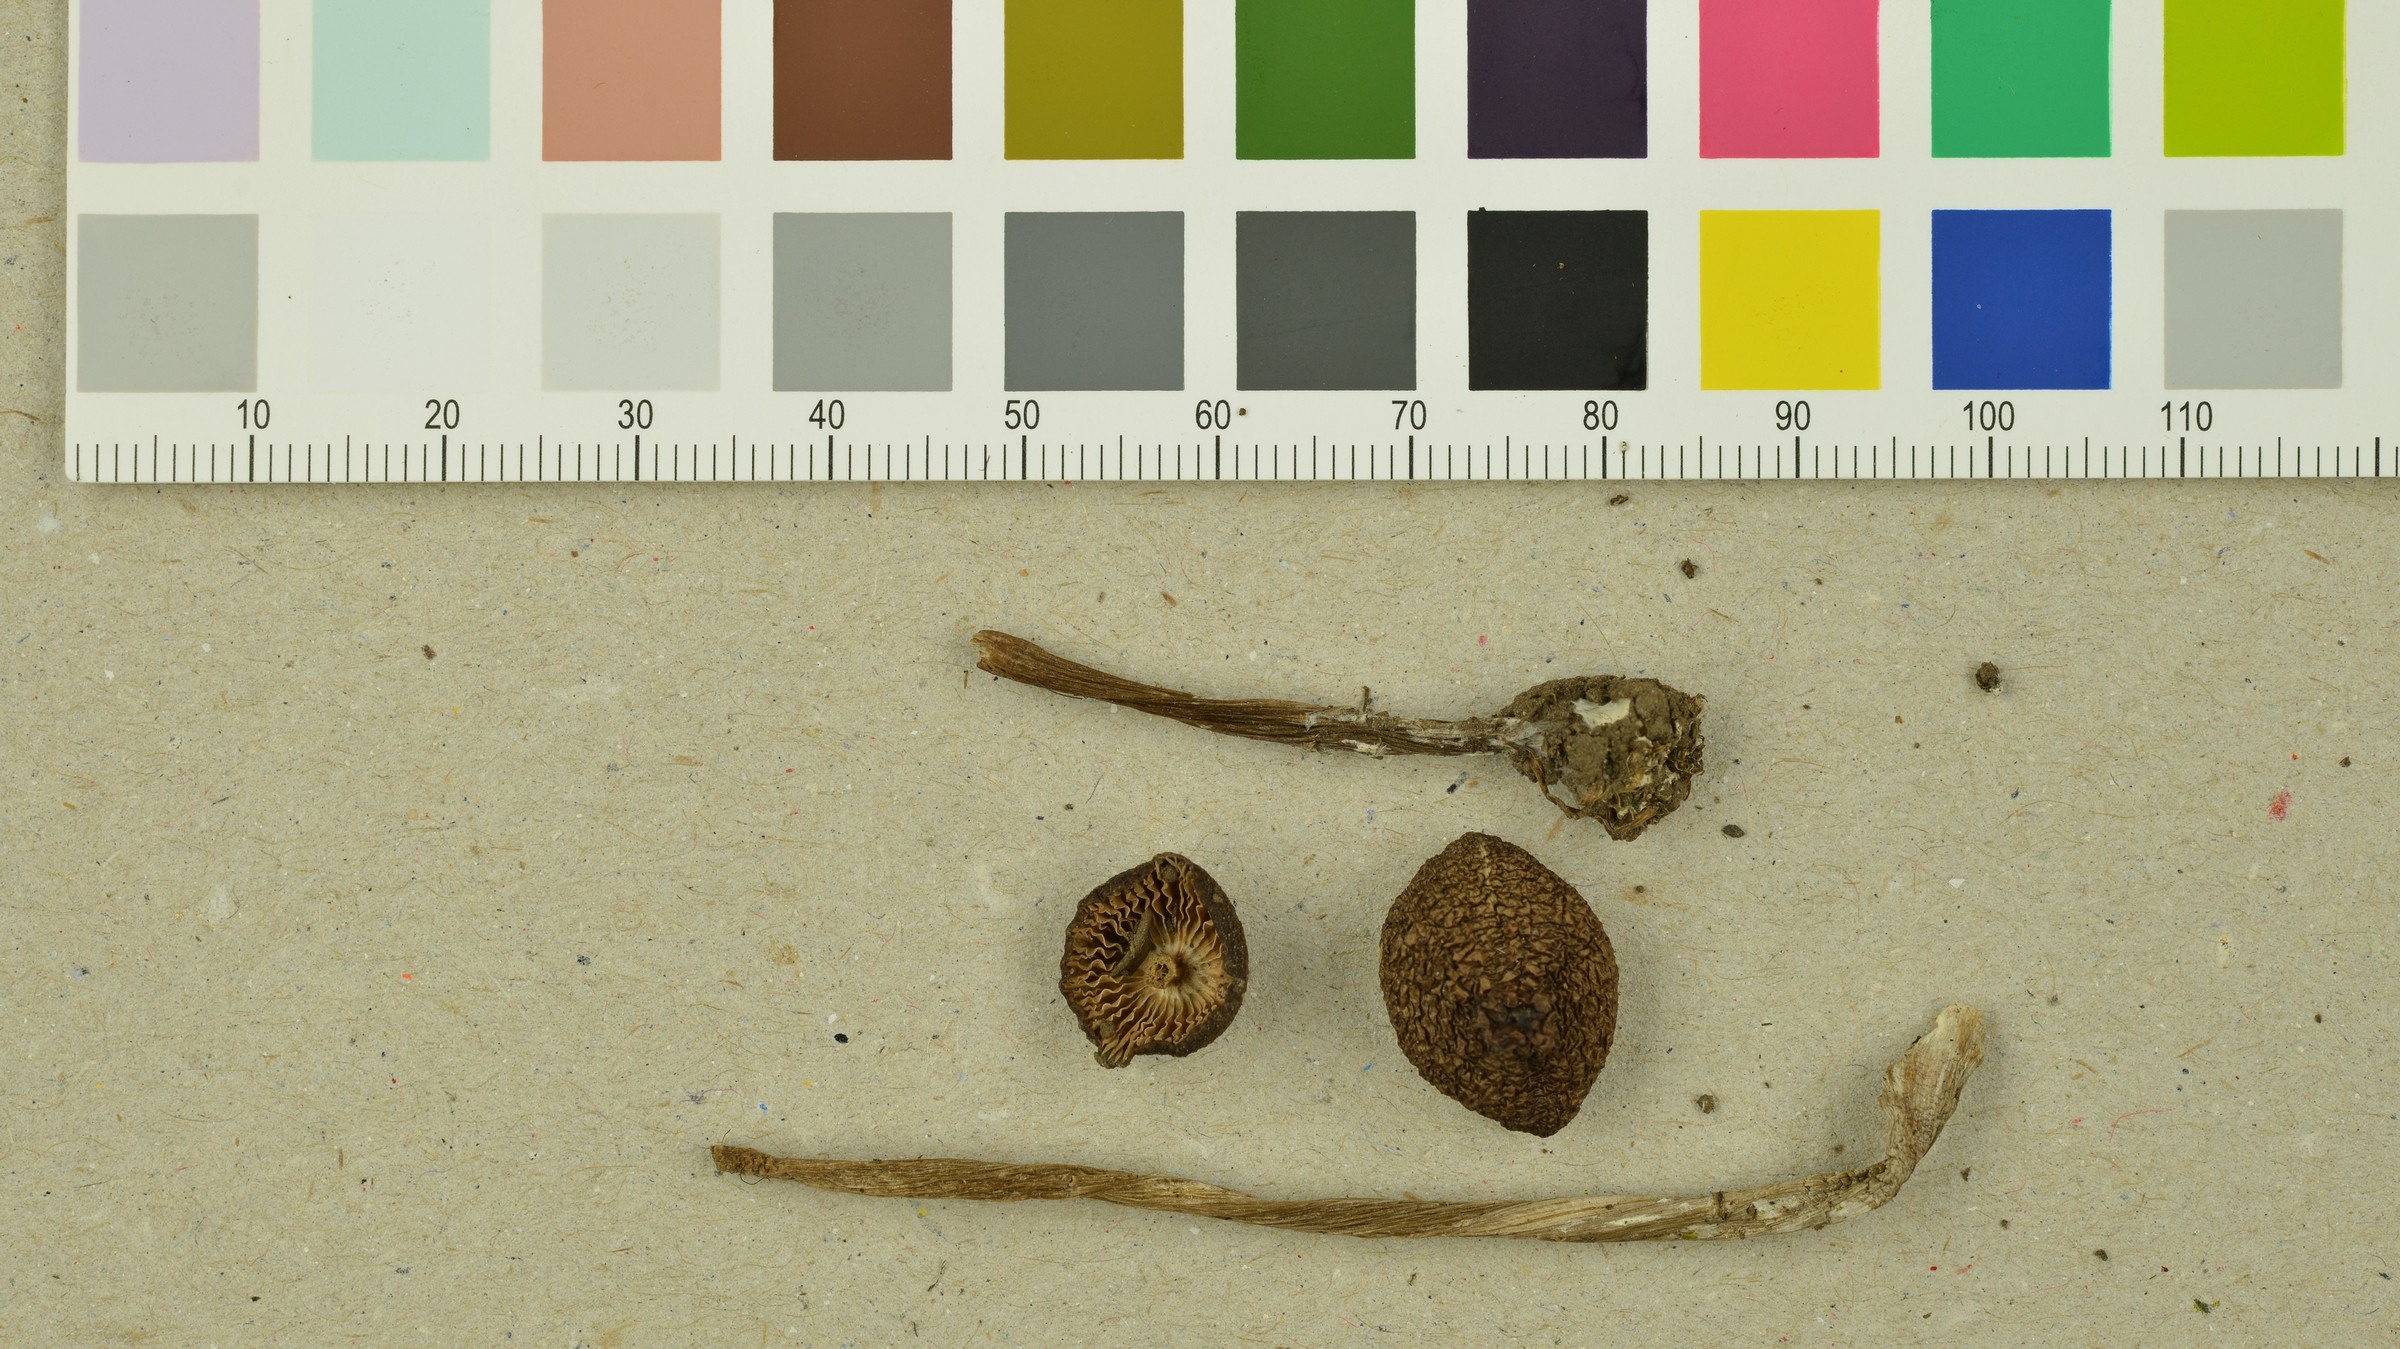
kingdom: Fungi
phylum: Basidiomycota
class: Agaricomycetes
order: Agaricales
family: Entolomataceae
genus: Entoloma
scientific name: Entoloma hirtipes
